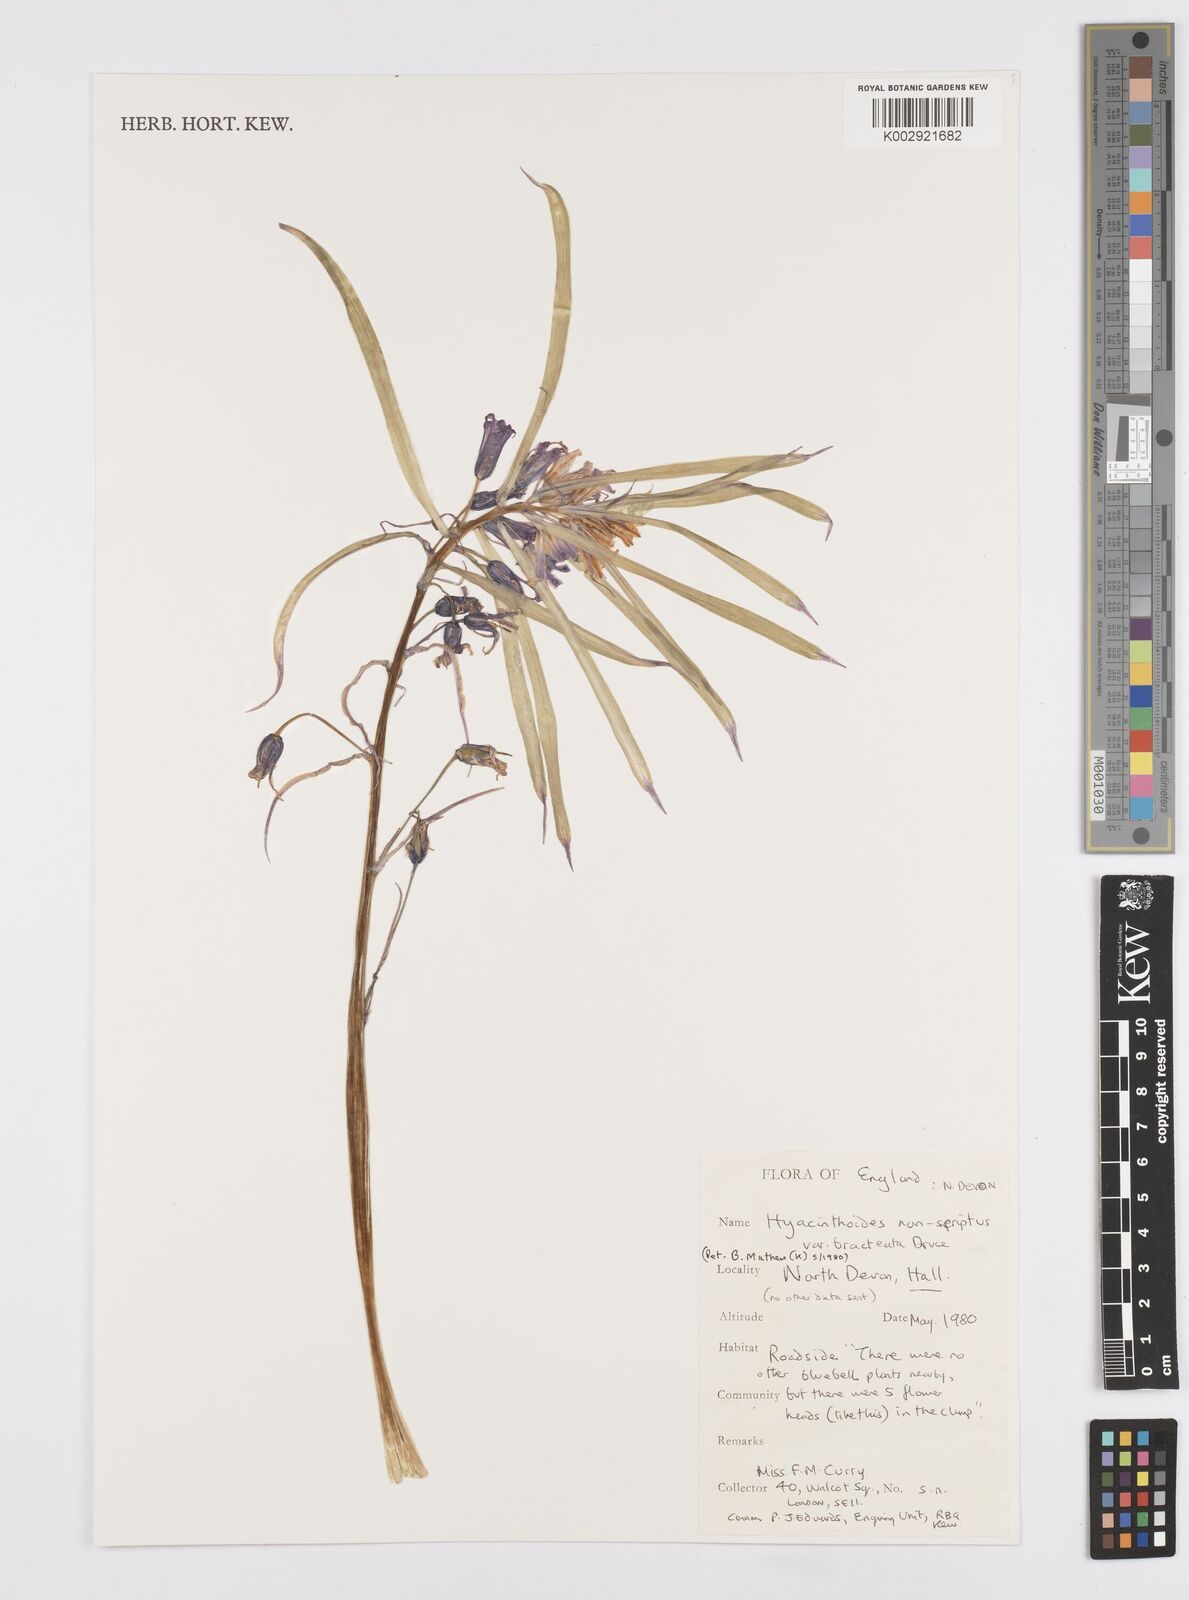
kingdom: Plantae
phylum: Tracheophyta
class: Liliopsida
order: Asparagales
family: Asparagaceae
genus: Hyacinthoides
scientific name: Hyacinthoides
